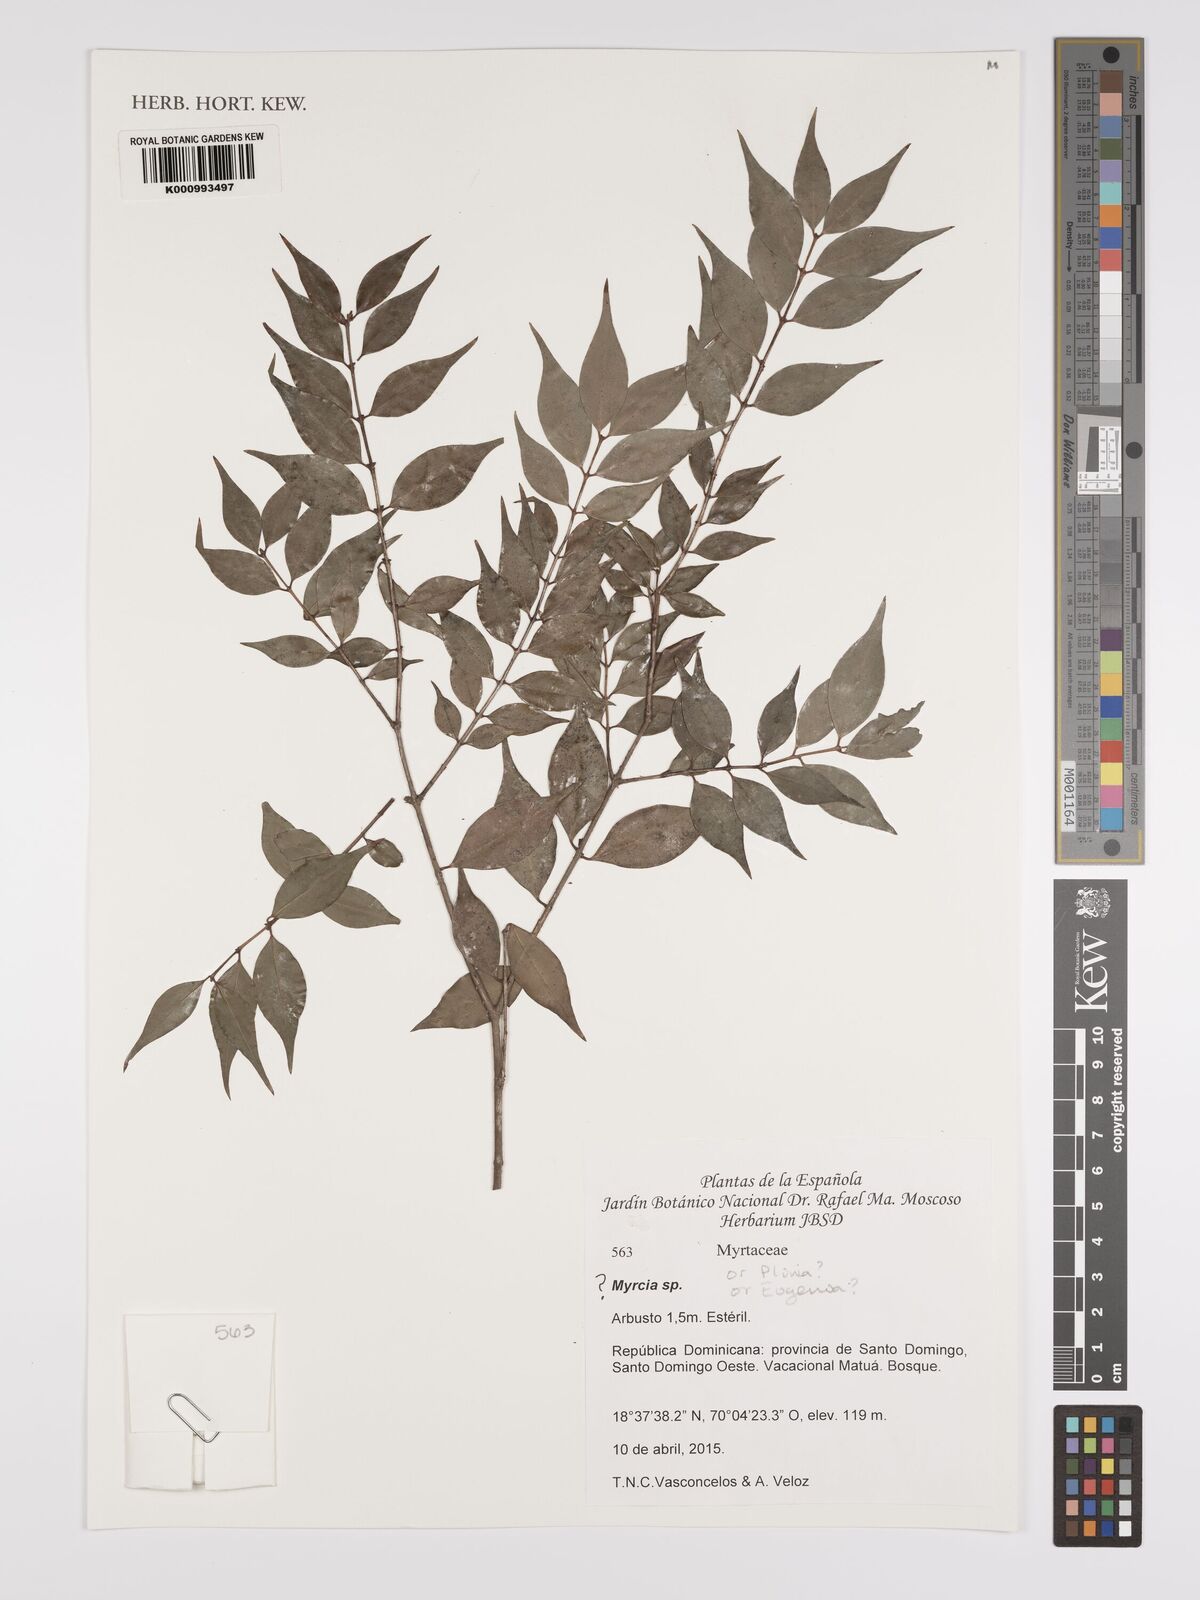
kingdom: Plantae
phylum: Tracheophyta
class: Magnoliopsida
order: Myrtales
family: Myrtaceae
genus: Myrcia
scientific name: Myrcia
